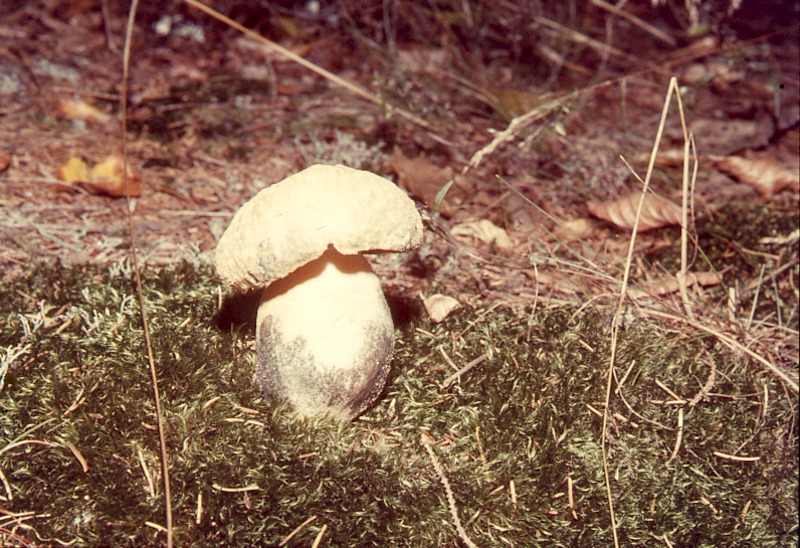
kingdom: Fungi
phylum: Basidiomycota
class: Agaricomycetes
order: Boletales
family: Gyroporaceae
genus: Gyroporus
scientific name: Gyroporus cyanescens
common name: Cornflower bolete
